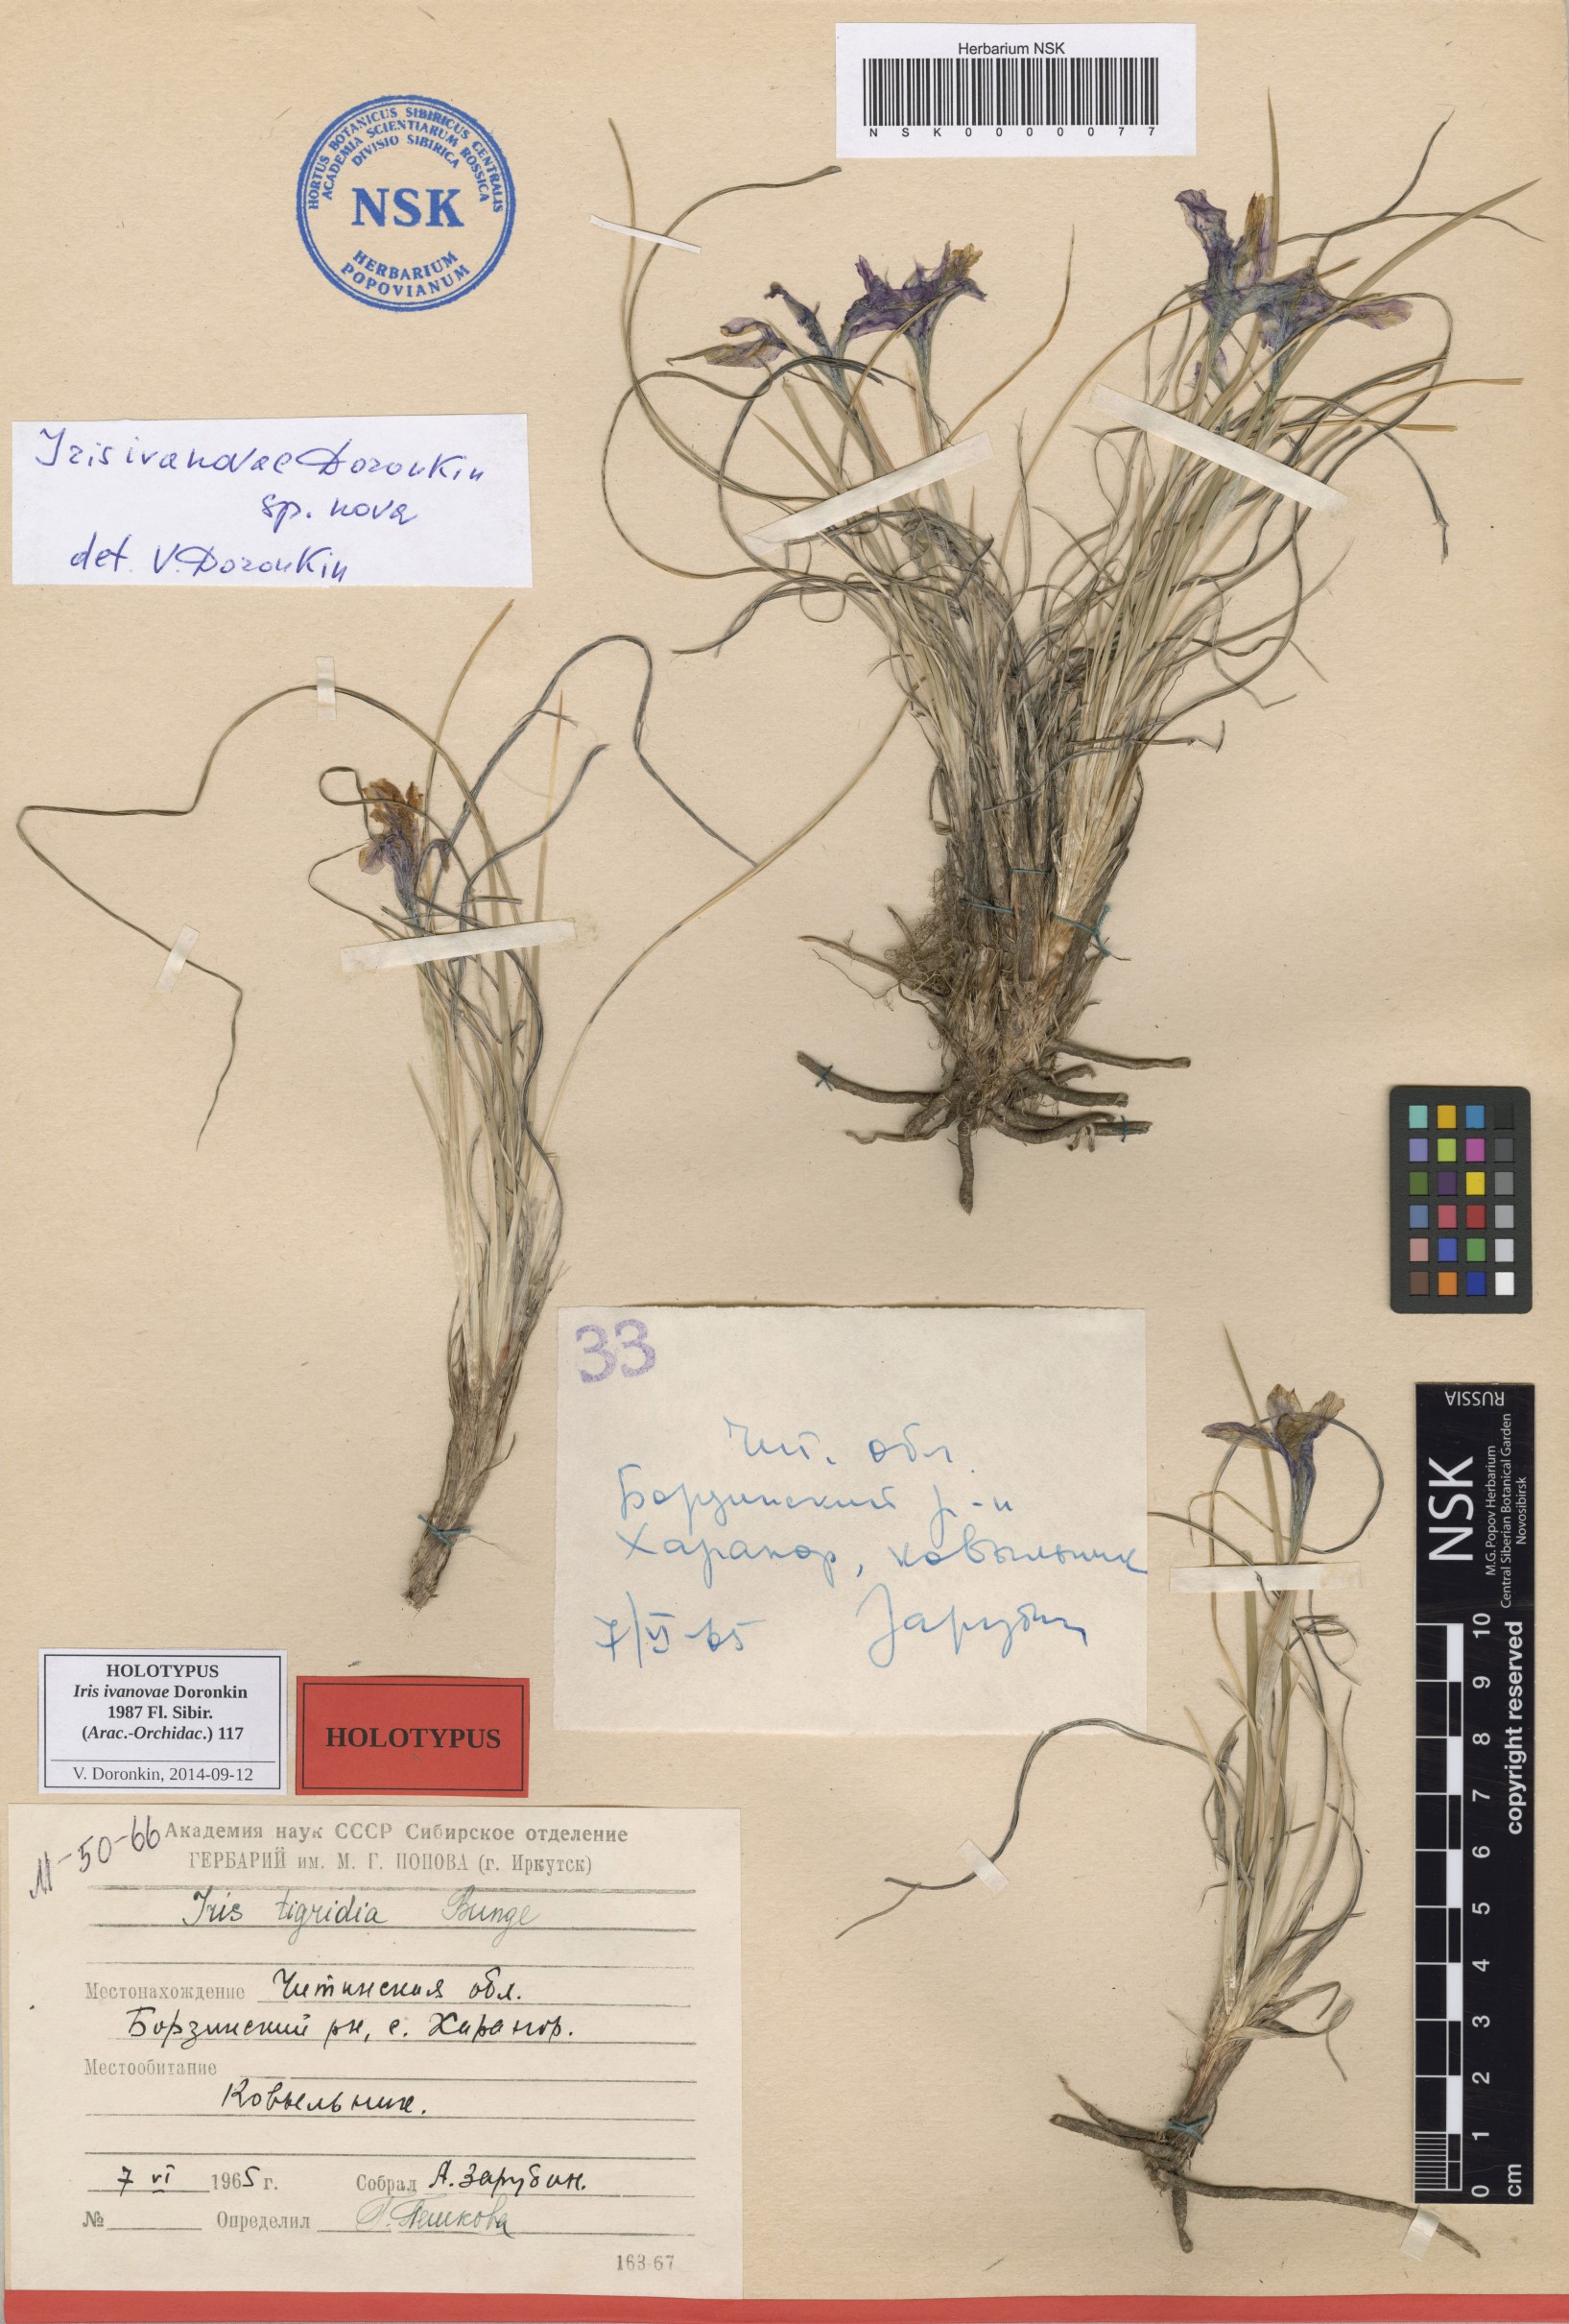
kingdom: Plantae
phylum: Tracheophyta
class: Liliopsida
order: Asparagales
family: Iridaceae
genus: Iris
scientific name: Iris ivanovae
